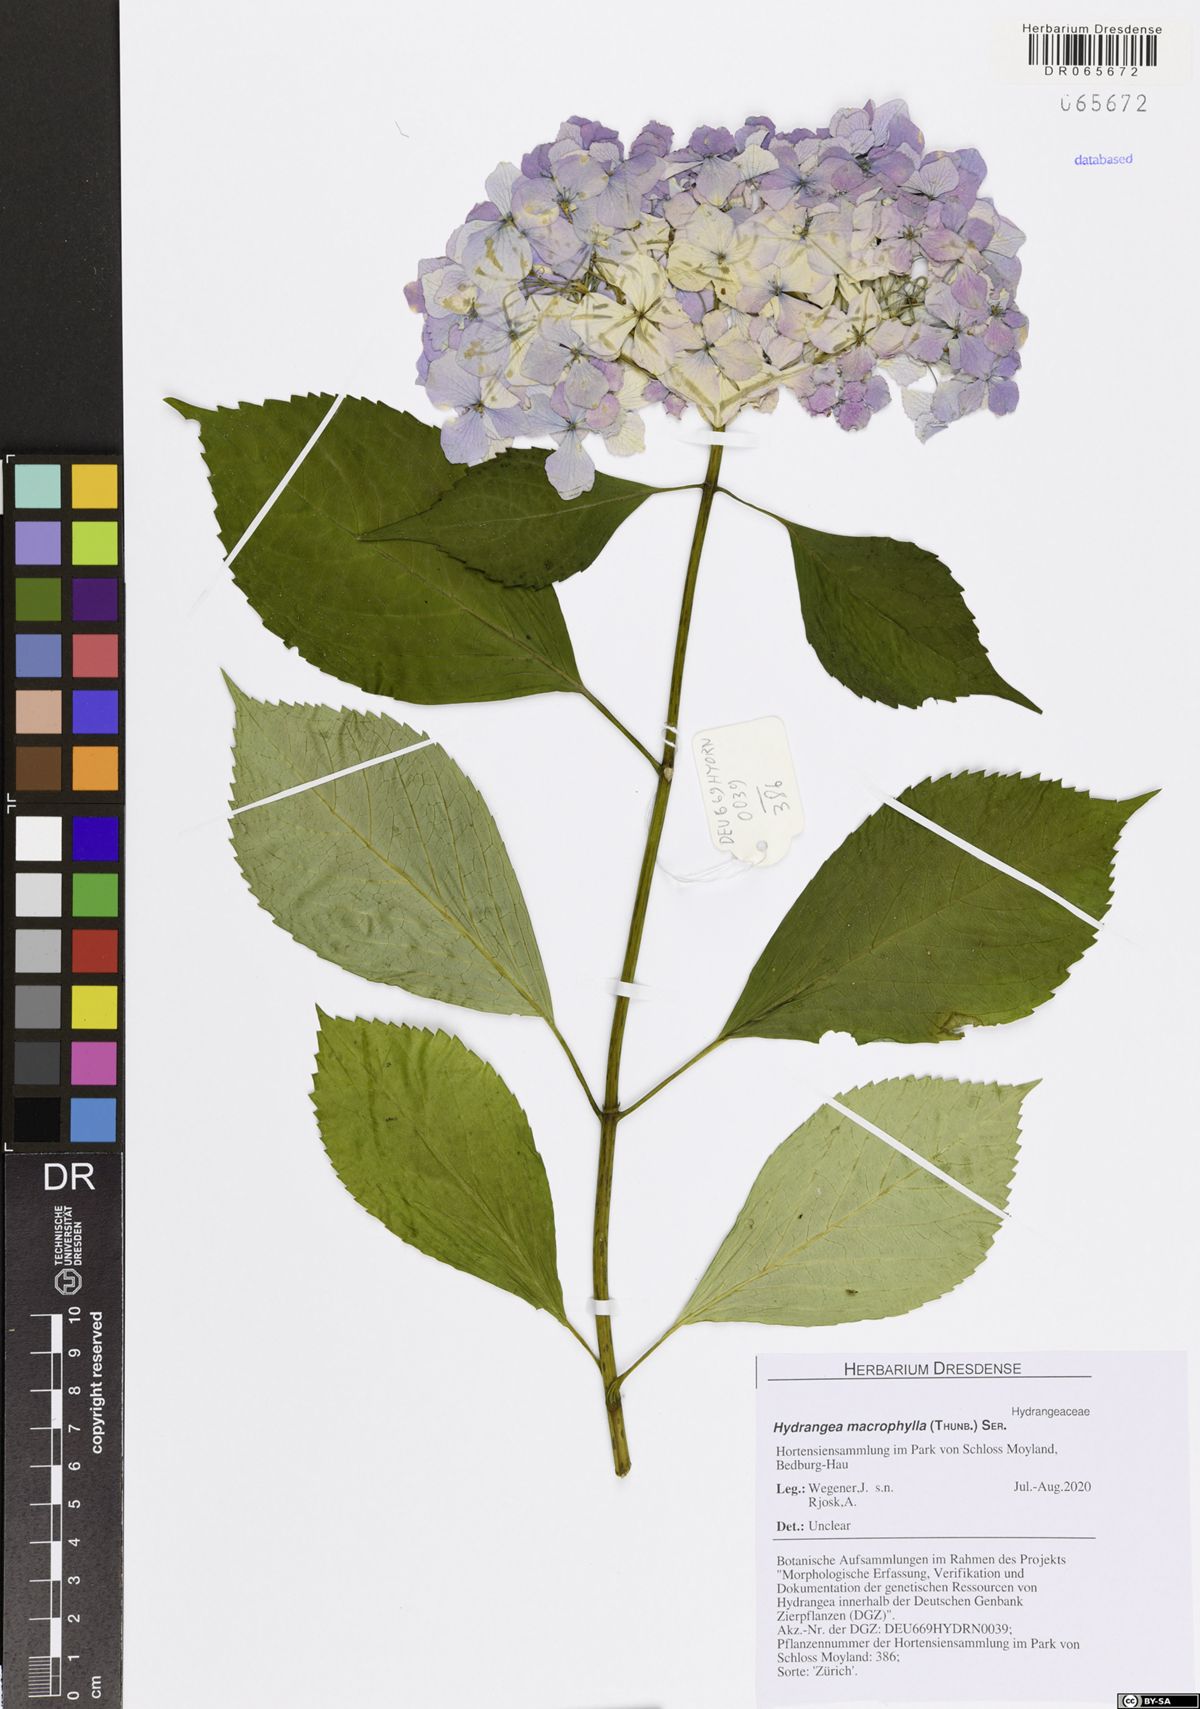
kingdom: Plantae
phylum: Tracheophyta
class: Magnoliopsida
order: Cornales
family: Hydrangeaceae
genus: Hydrangea
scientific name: Hydrangea macrophylla
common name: Hydrangea
